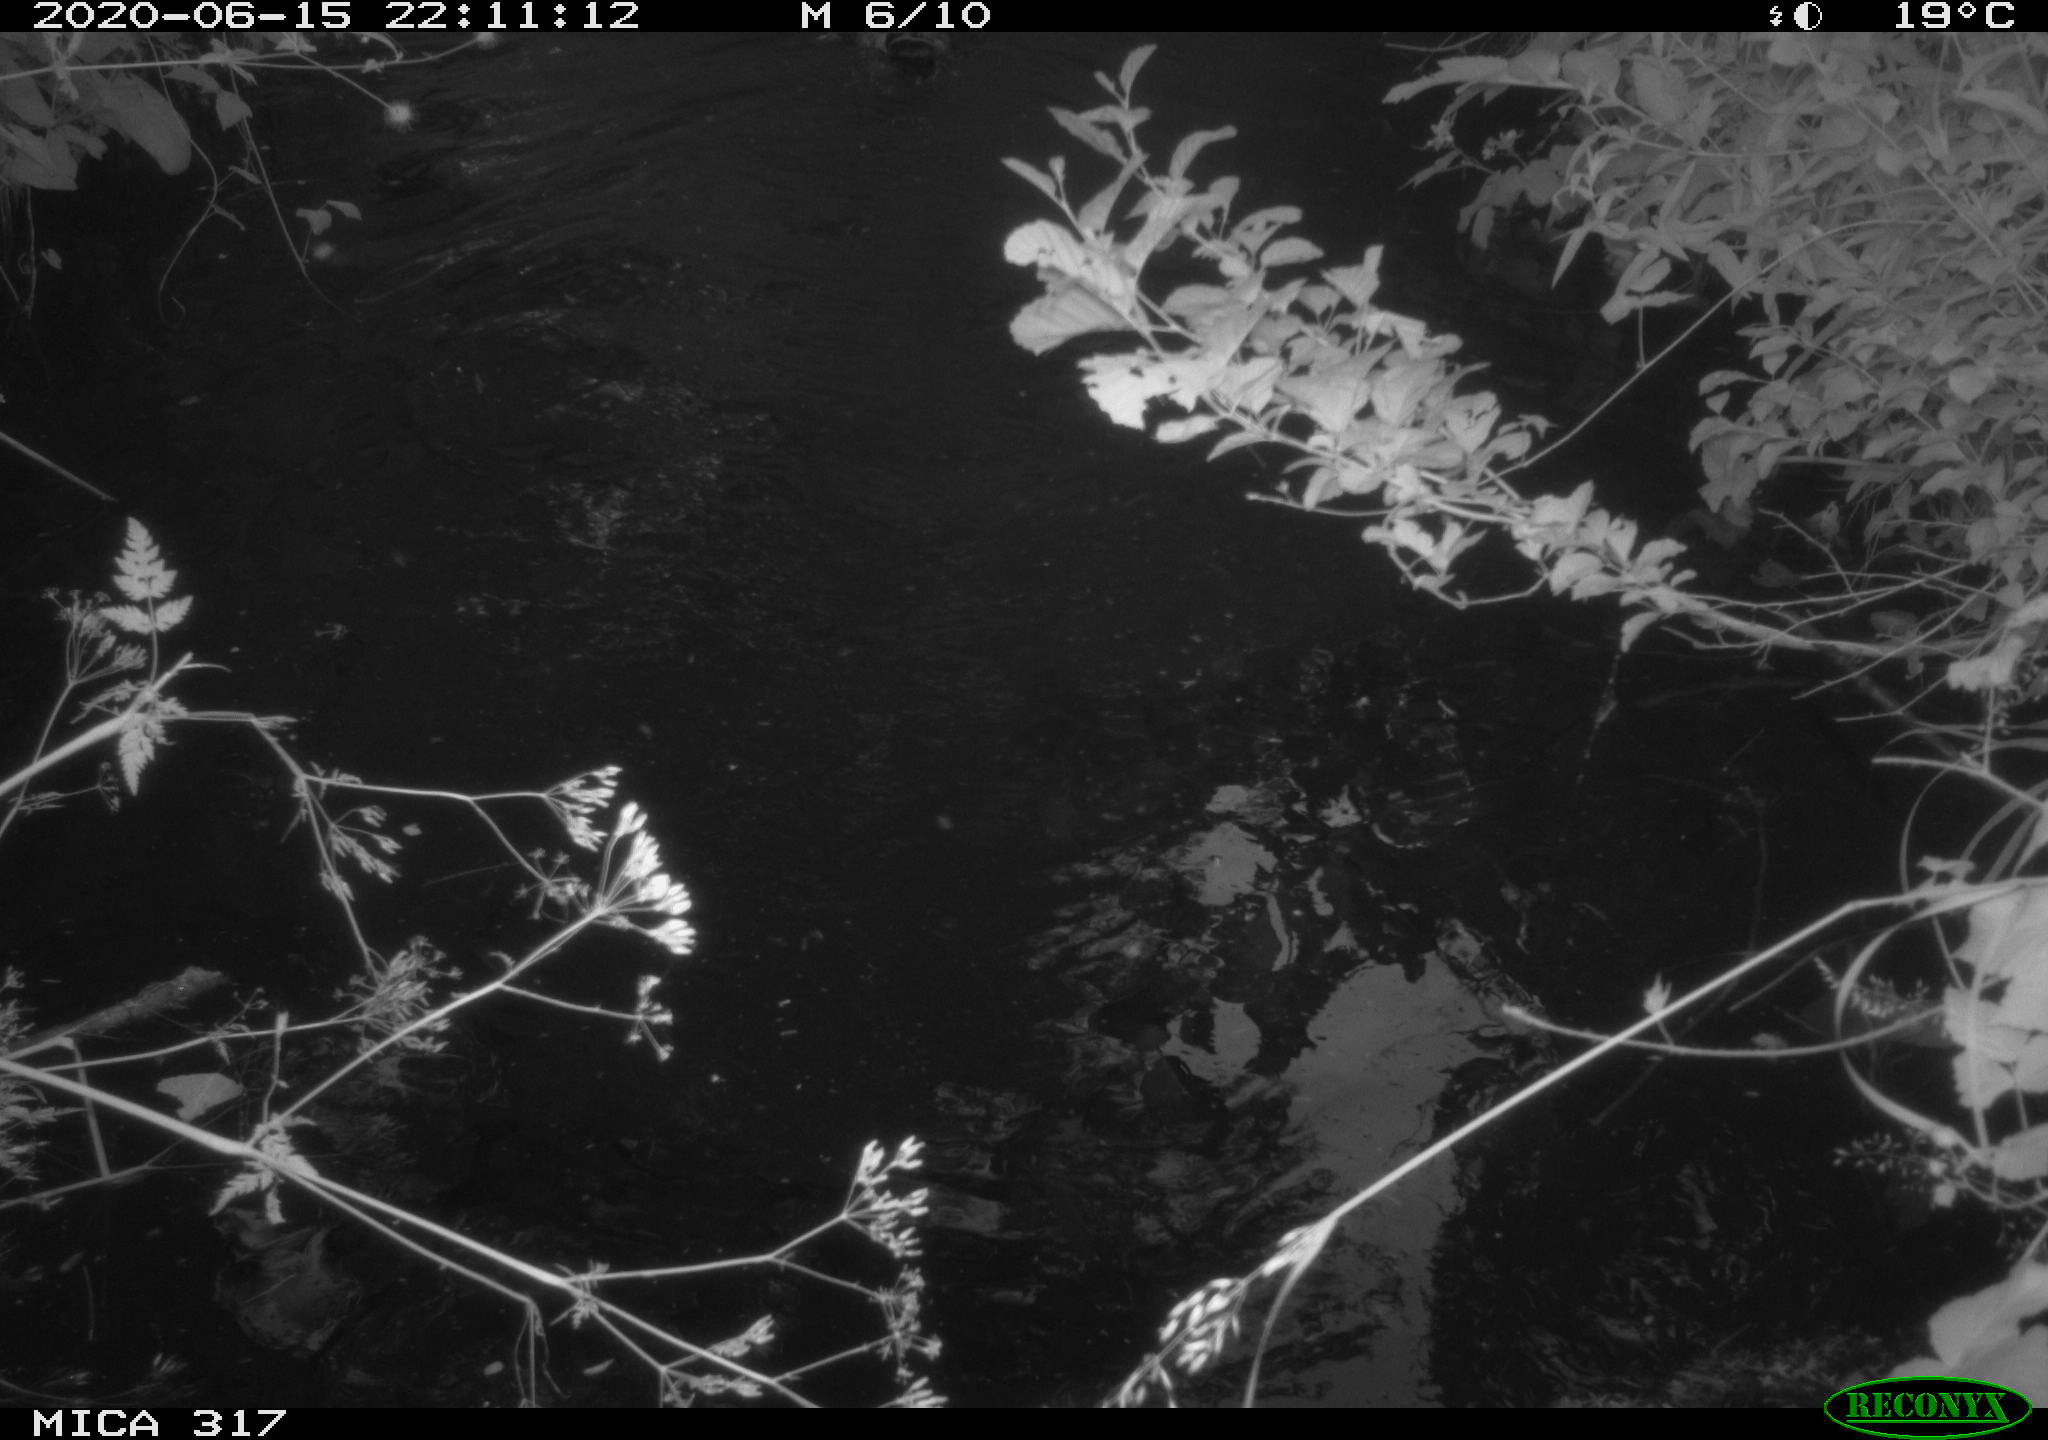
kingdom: Animalia
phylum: Chordata
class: Aves
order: Anseriformes
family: Anatidae
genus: Anas
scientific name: Anas platyrhynchos
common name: Mallard
